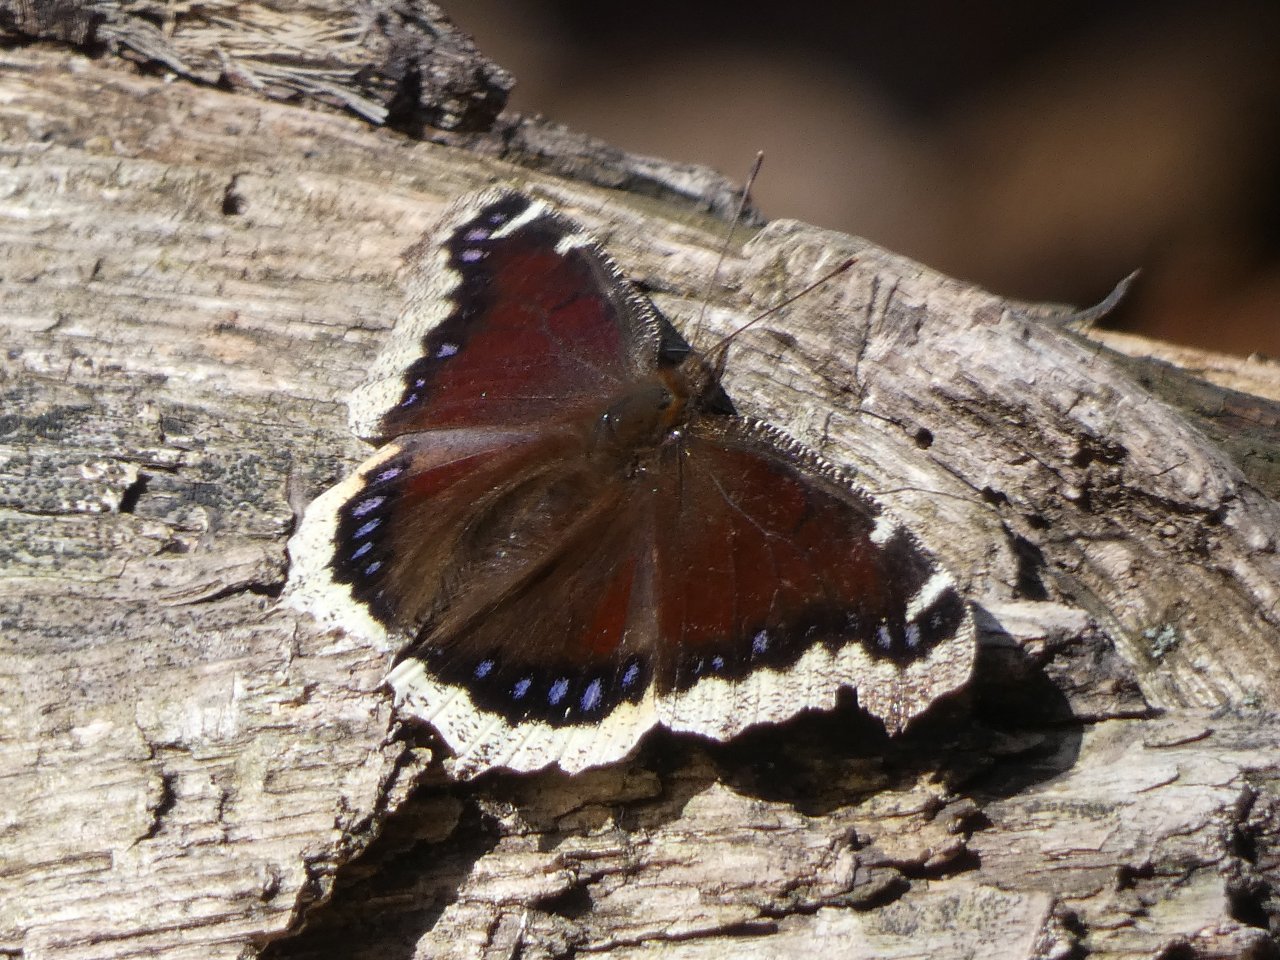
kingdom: Animalia
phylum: Arthropoda
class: Insecta
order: Lepidoptera
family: Nymphalidae
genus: Nymphalis
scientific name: Nymphalis antiopa
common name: Mourning Cloak
